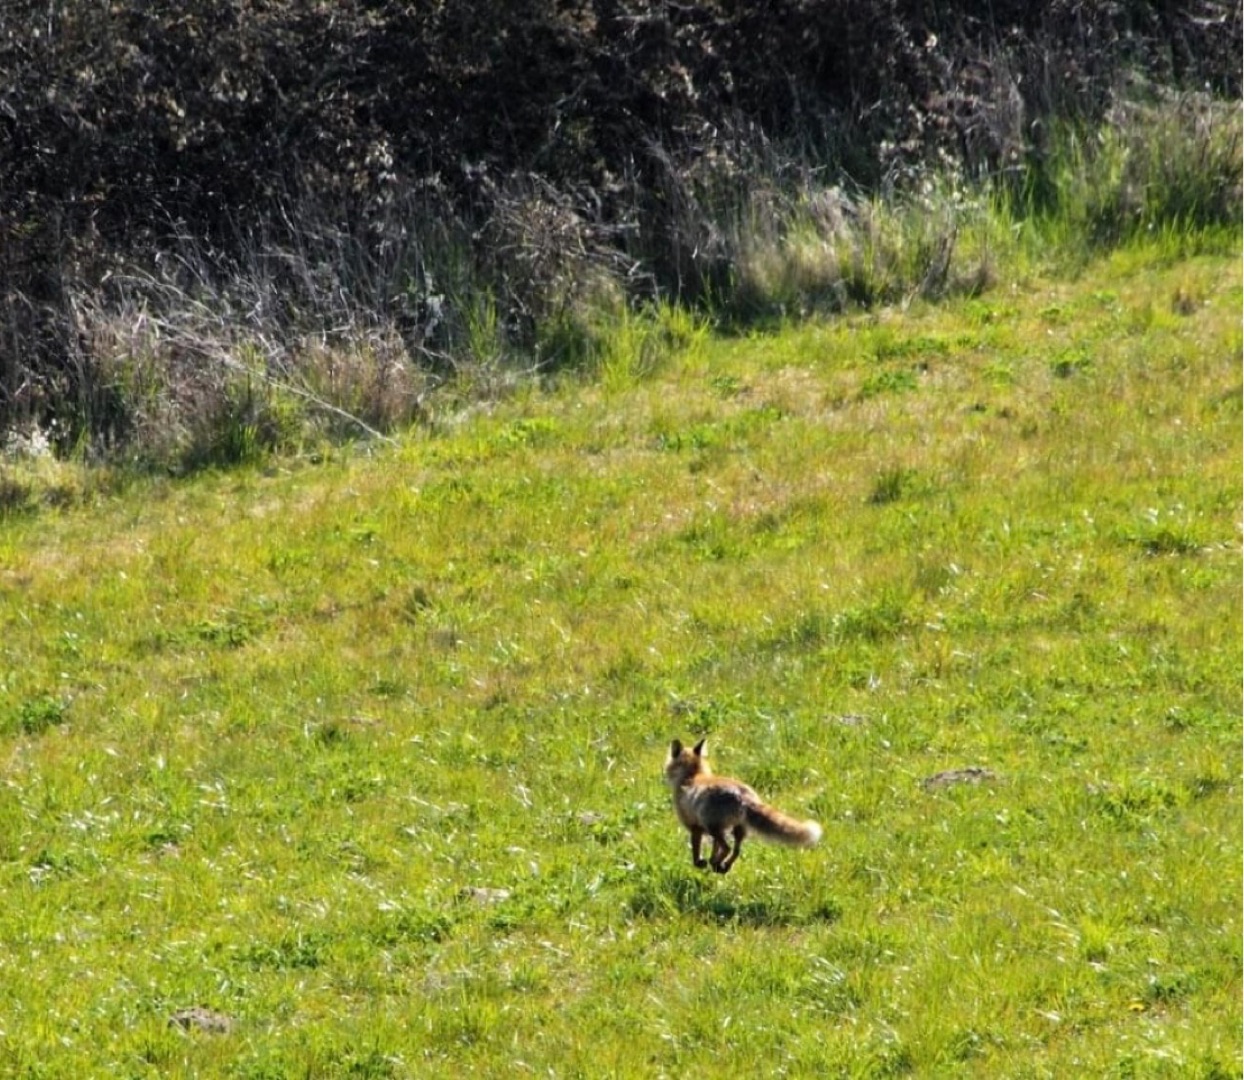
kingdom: Animalia
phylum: Chordata
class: Mammalia
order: Carnivora
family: Canidae
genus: Vulpes
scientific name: Vulpes vulpes
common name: Ræv
